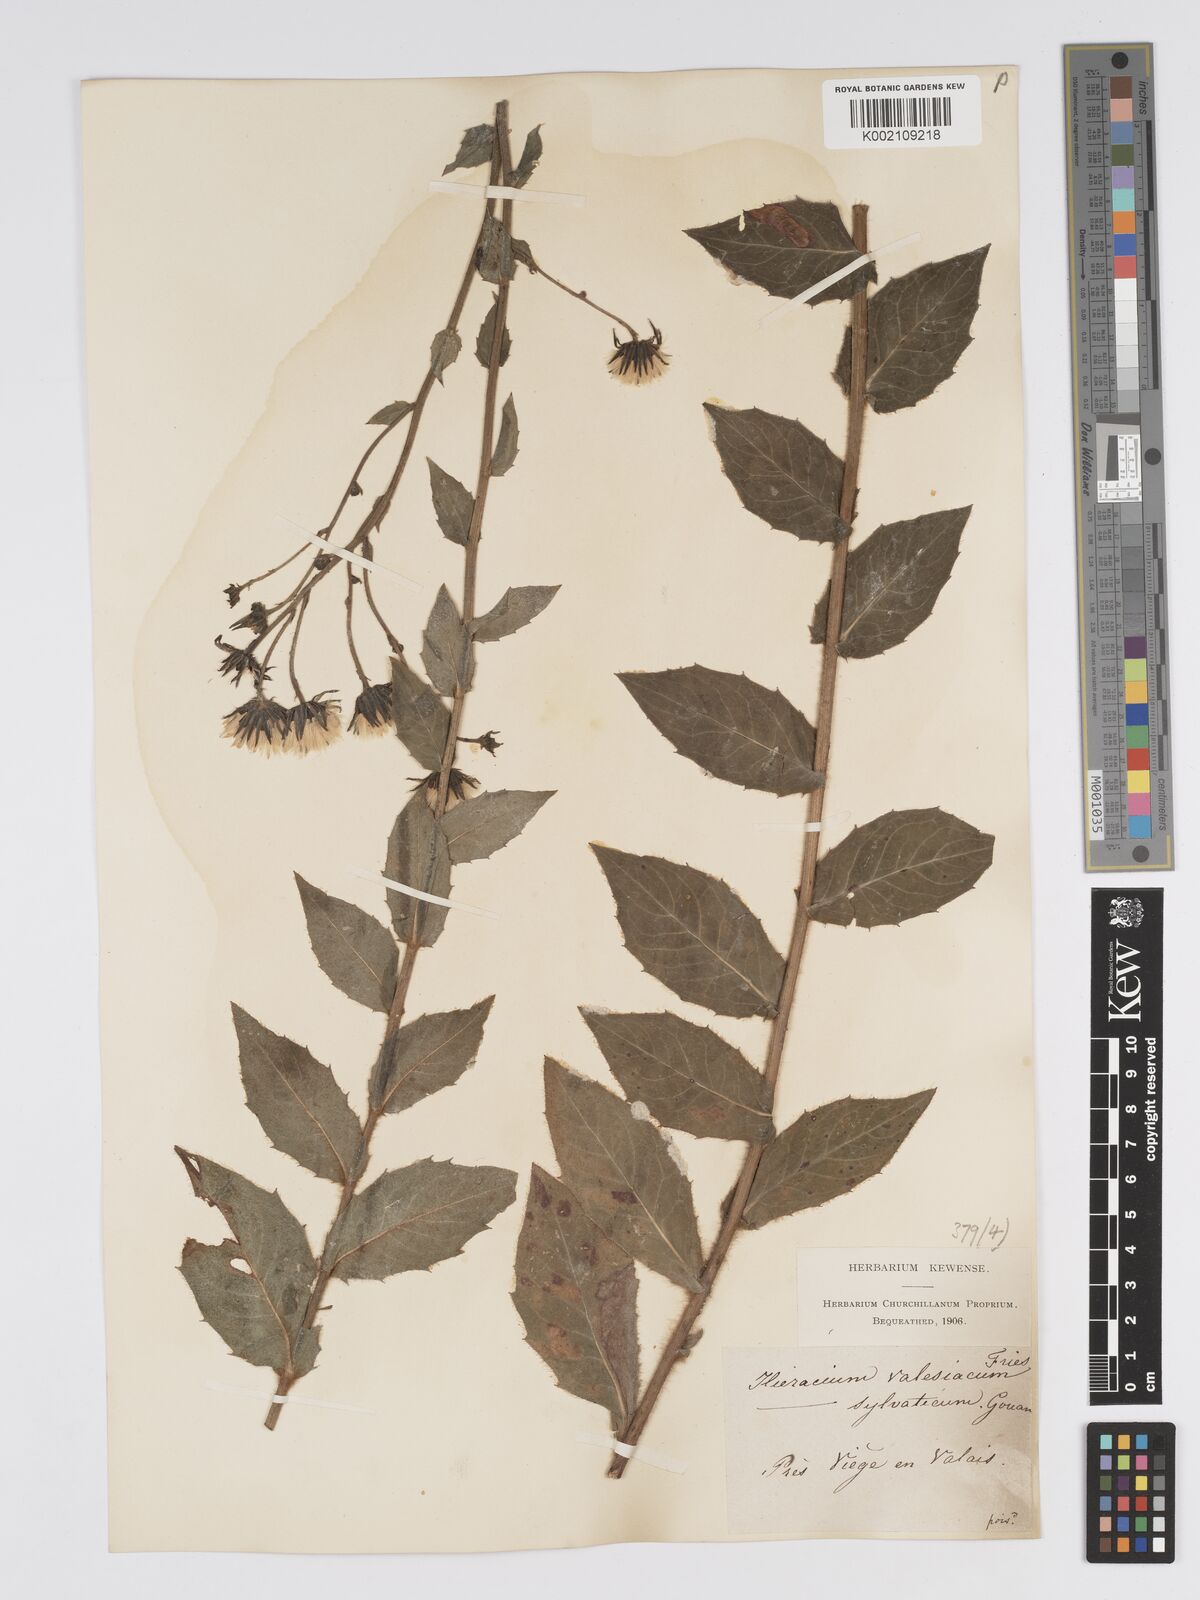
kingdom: Plantae
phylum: Tracheophyta
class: Magnoliopsida
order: Asterales
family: Asteraceae
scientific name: Asteraceae
